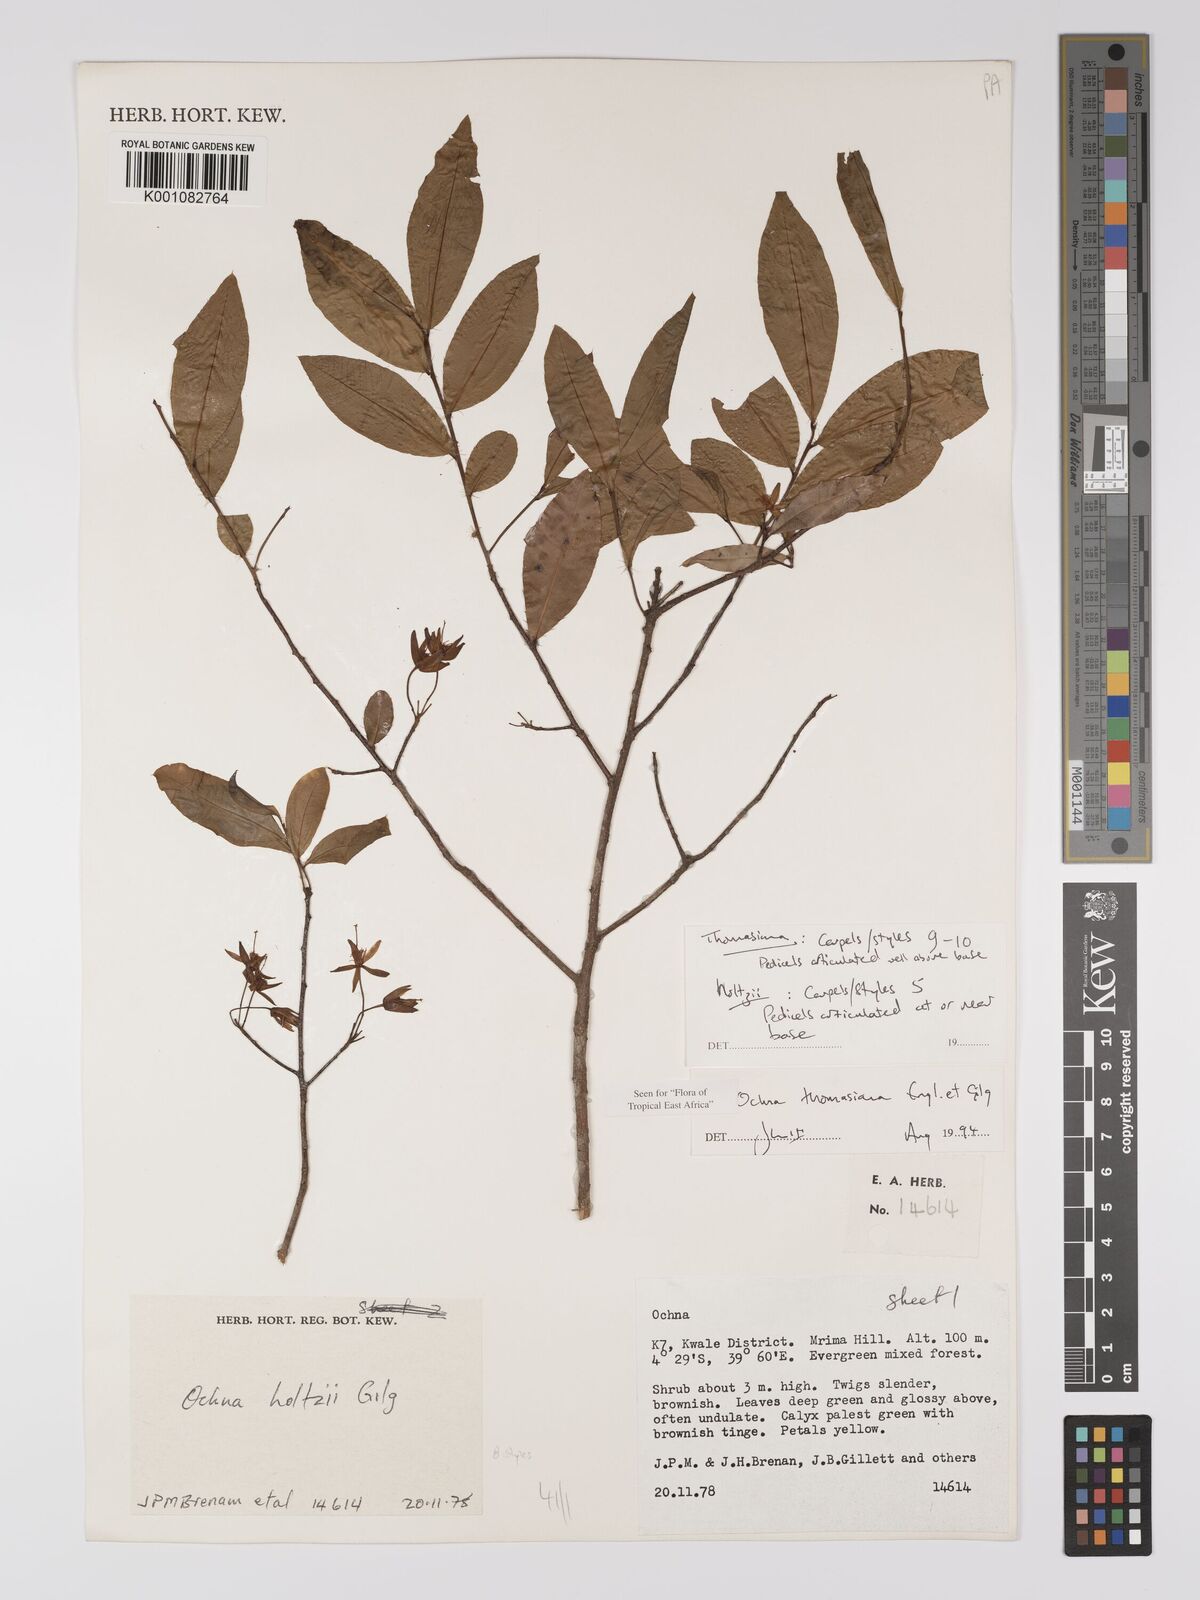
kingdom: Plantae
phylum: Tracheophyta
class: Magnoliopsida
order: Malpighiales
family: Ochnaceae
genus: Ochna
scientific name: Ochna thomasiana
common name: Thomas' bird's-eye bush
